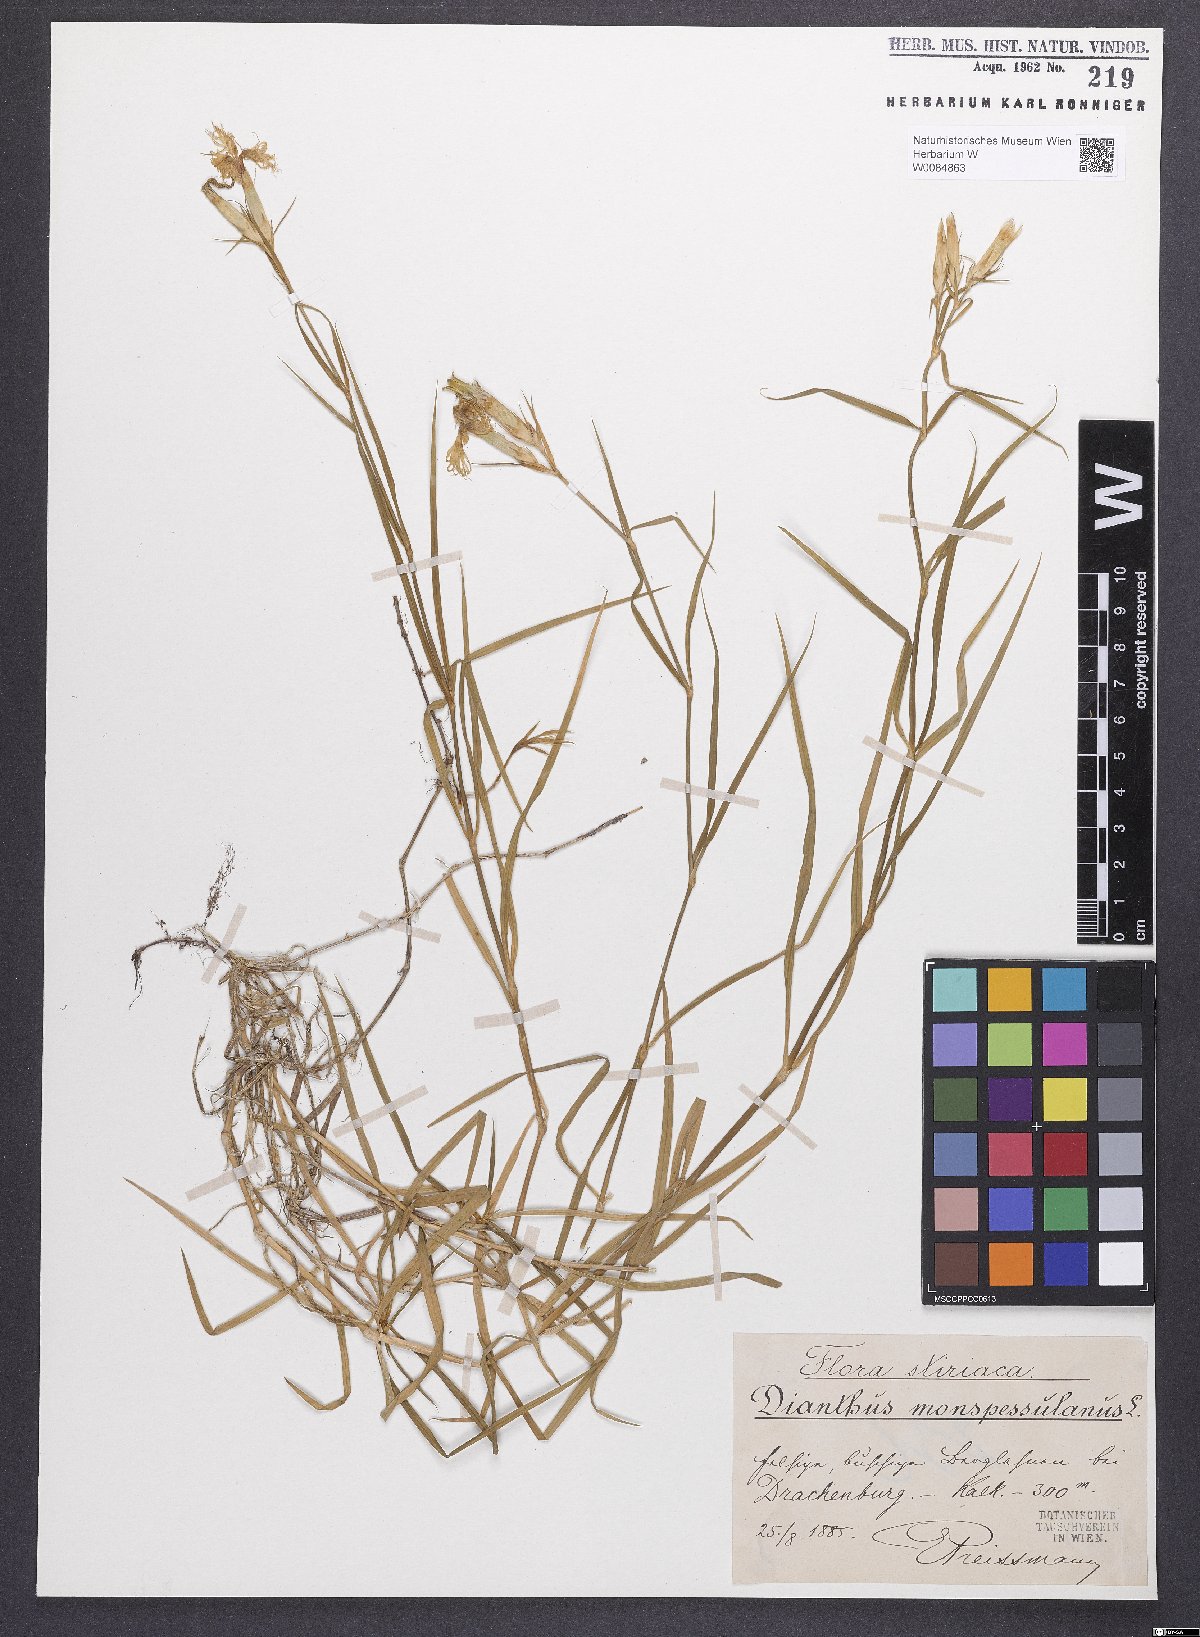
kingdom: Plantae
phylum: Tracheophyta
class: Magnoliopsida
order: Caryophyllales
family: Caryophyllaceae
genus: Dianthus
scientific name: Dianthus hyssopifolius
